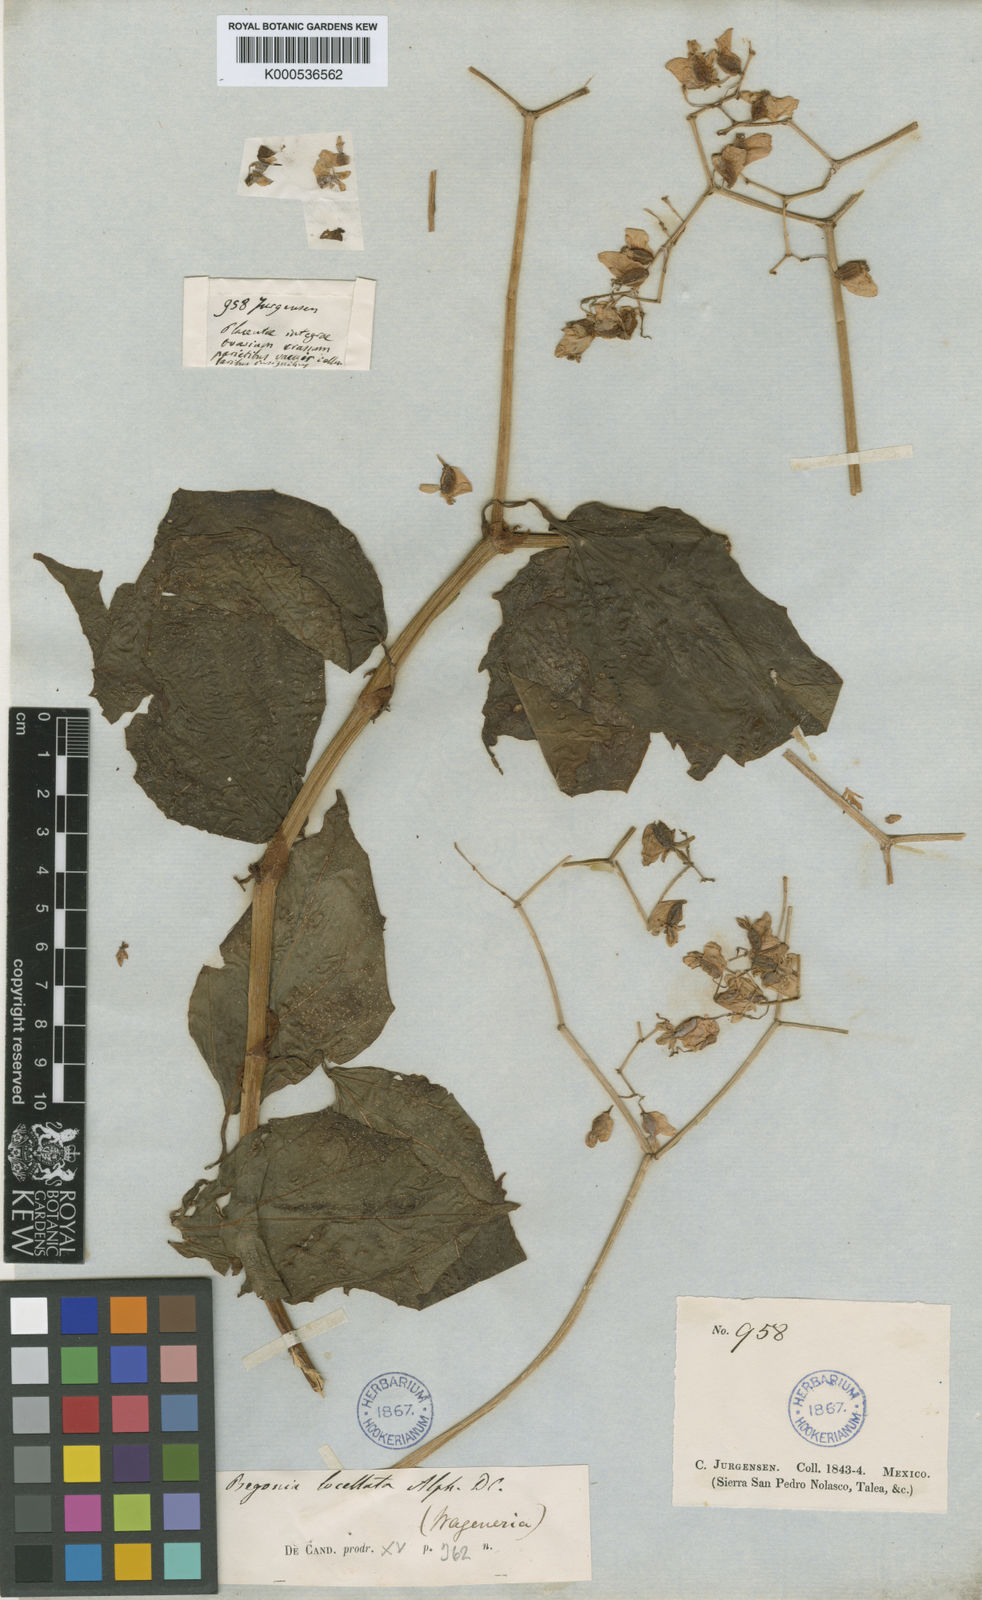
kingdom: Plantae
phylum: Tracheophyta
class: Magnoliopsida
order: Cucurbitales
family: Begoniaceae
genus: Begonia
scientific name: Begonia glabra
